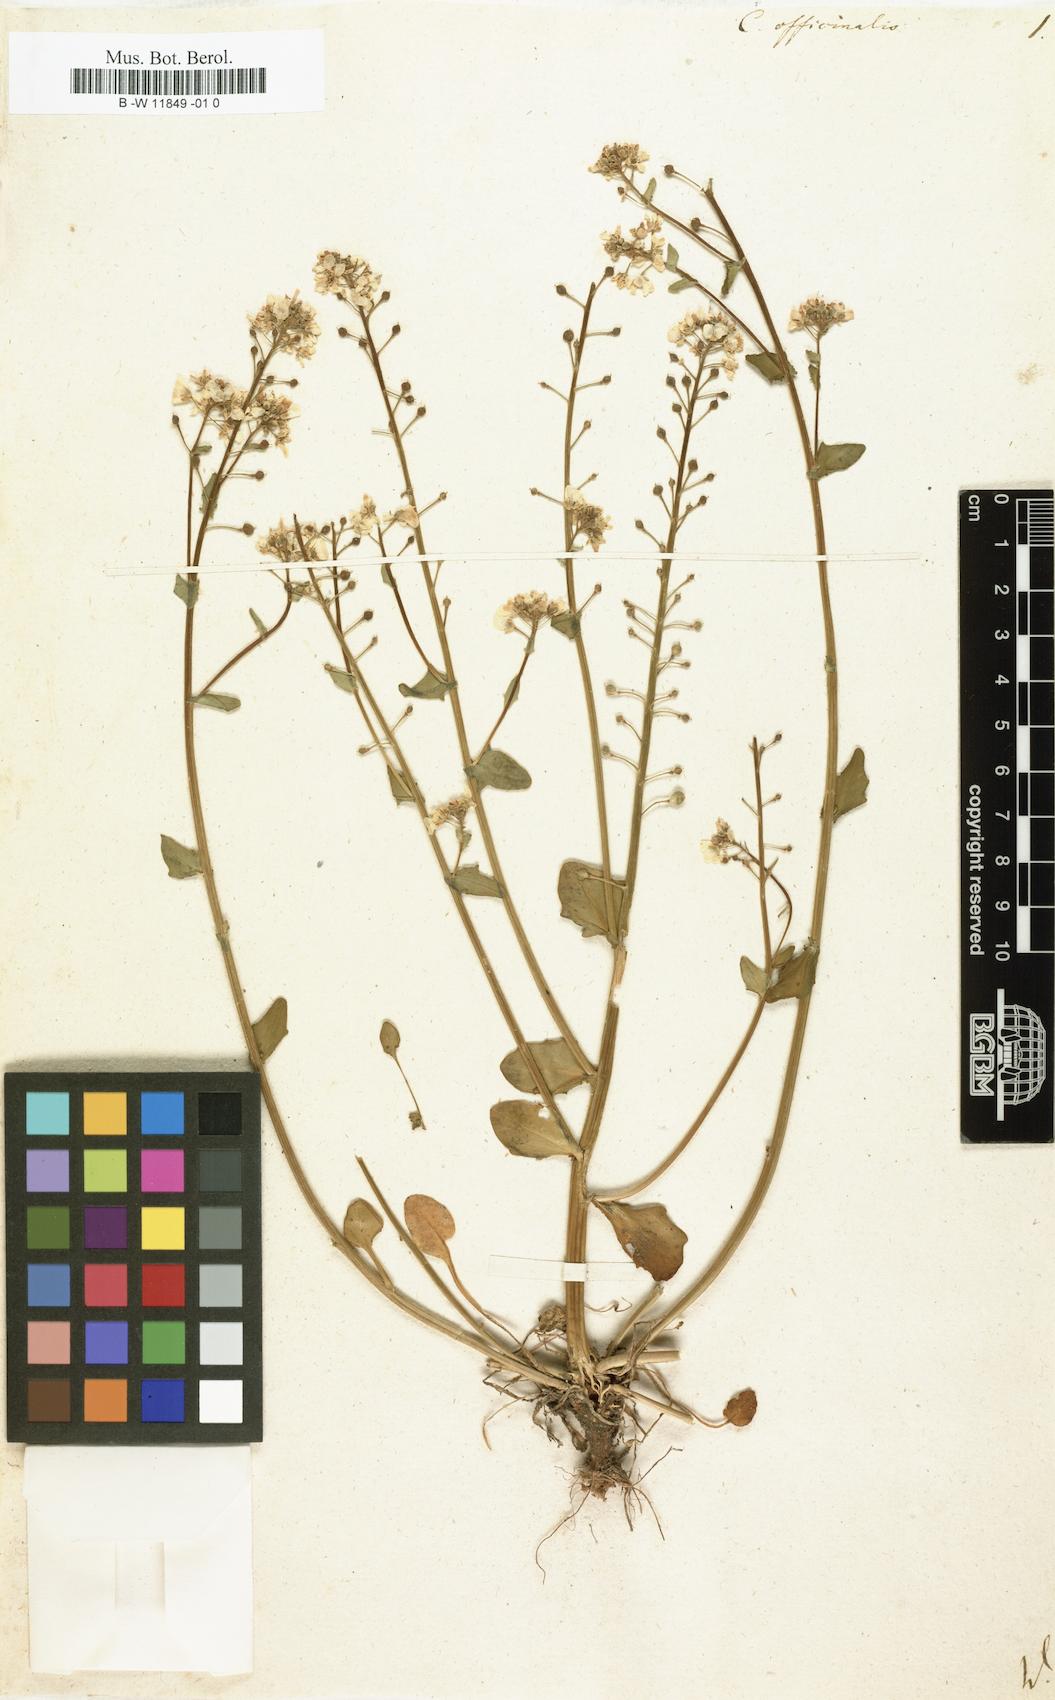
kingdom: Plantae
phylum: Tracheophyta
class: Magnoliopsida
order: Brassicales
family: Brassicaceae
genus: Cochlearia
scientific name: Cochlearia officinalis
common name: Scurvy-grass
